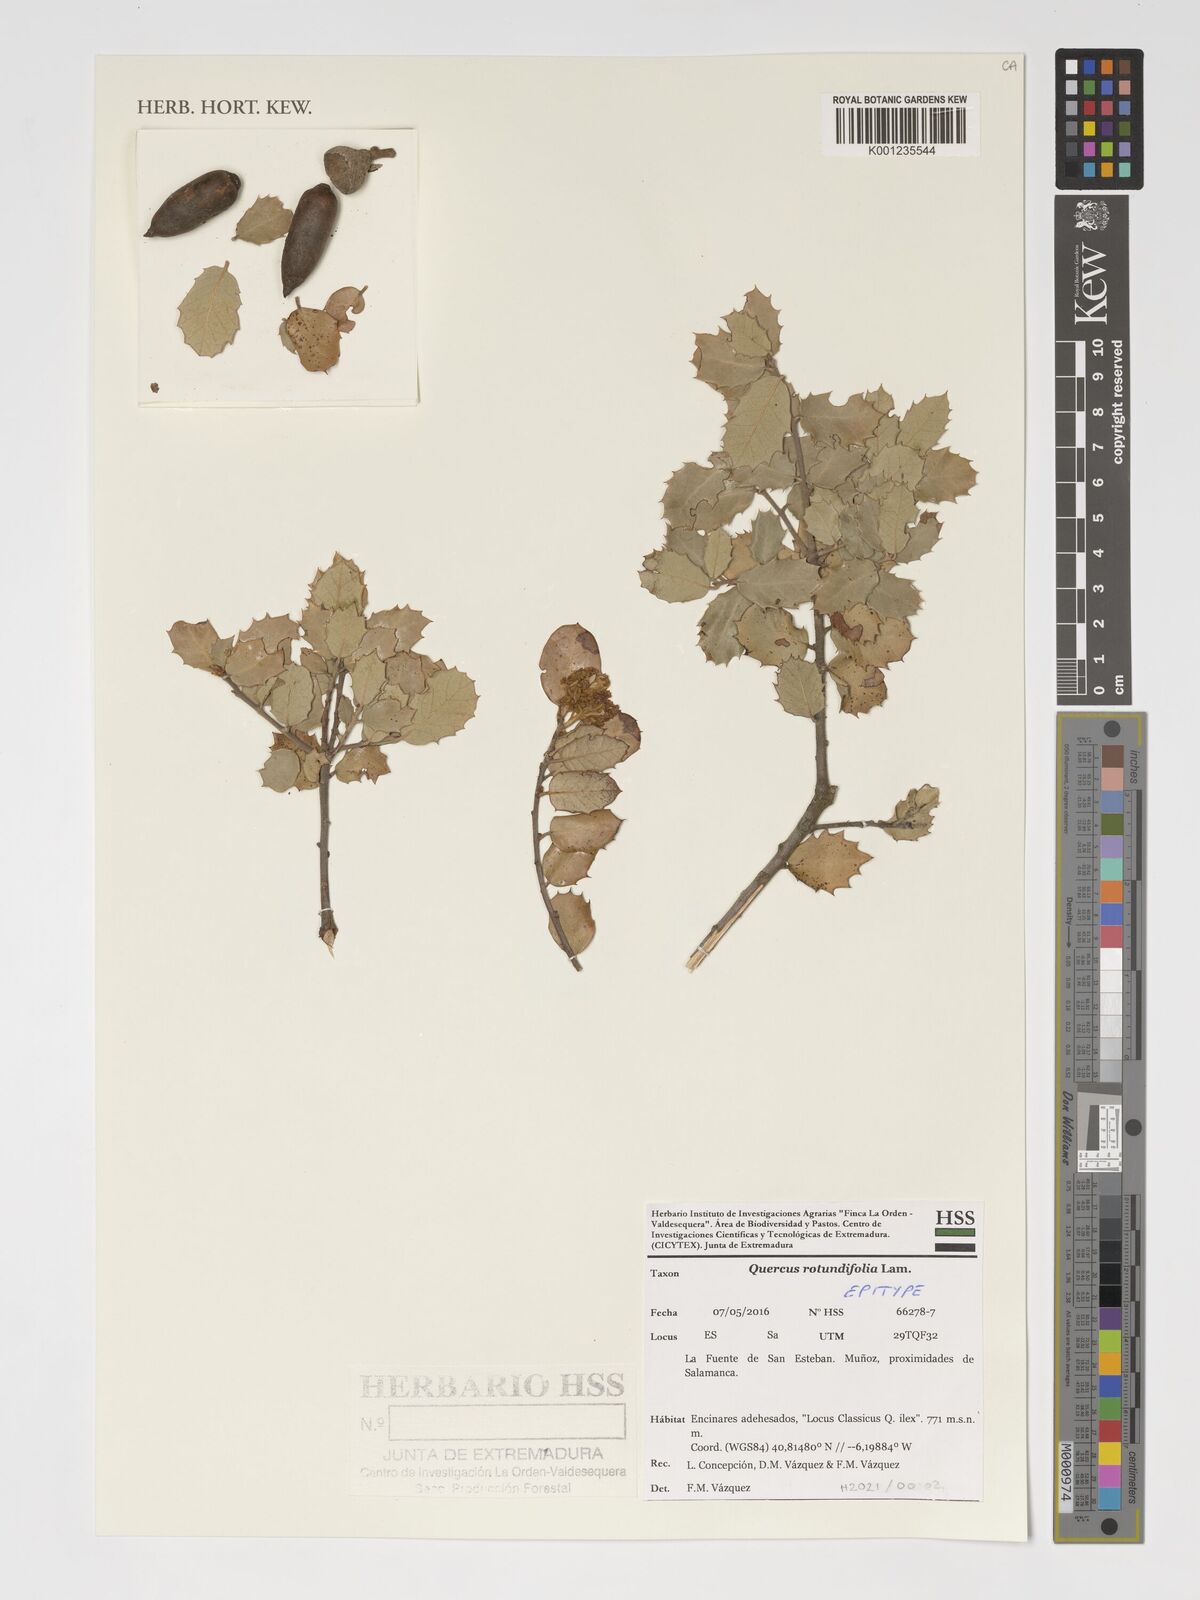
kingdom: Plantae
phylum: Tracheophyta
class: Magnoliopsida
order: Fagales
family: Fagaceae
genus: Quercus
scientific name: Quercus rotundifolia
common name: Holm oak
